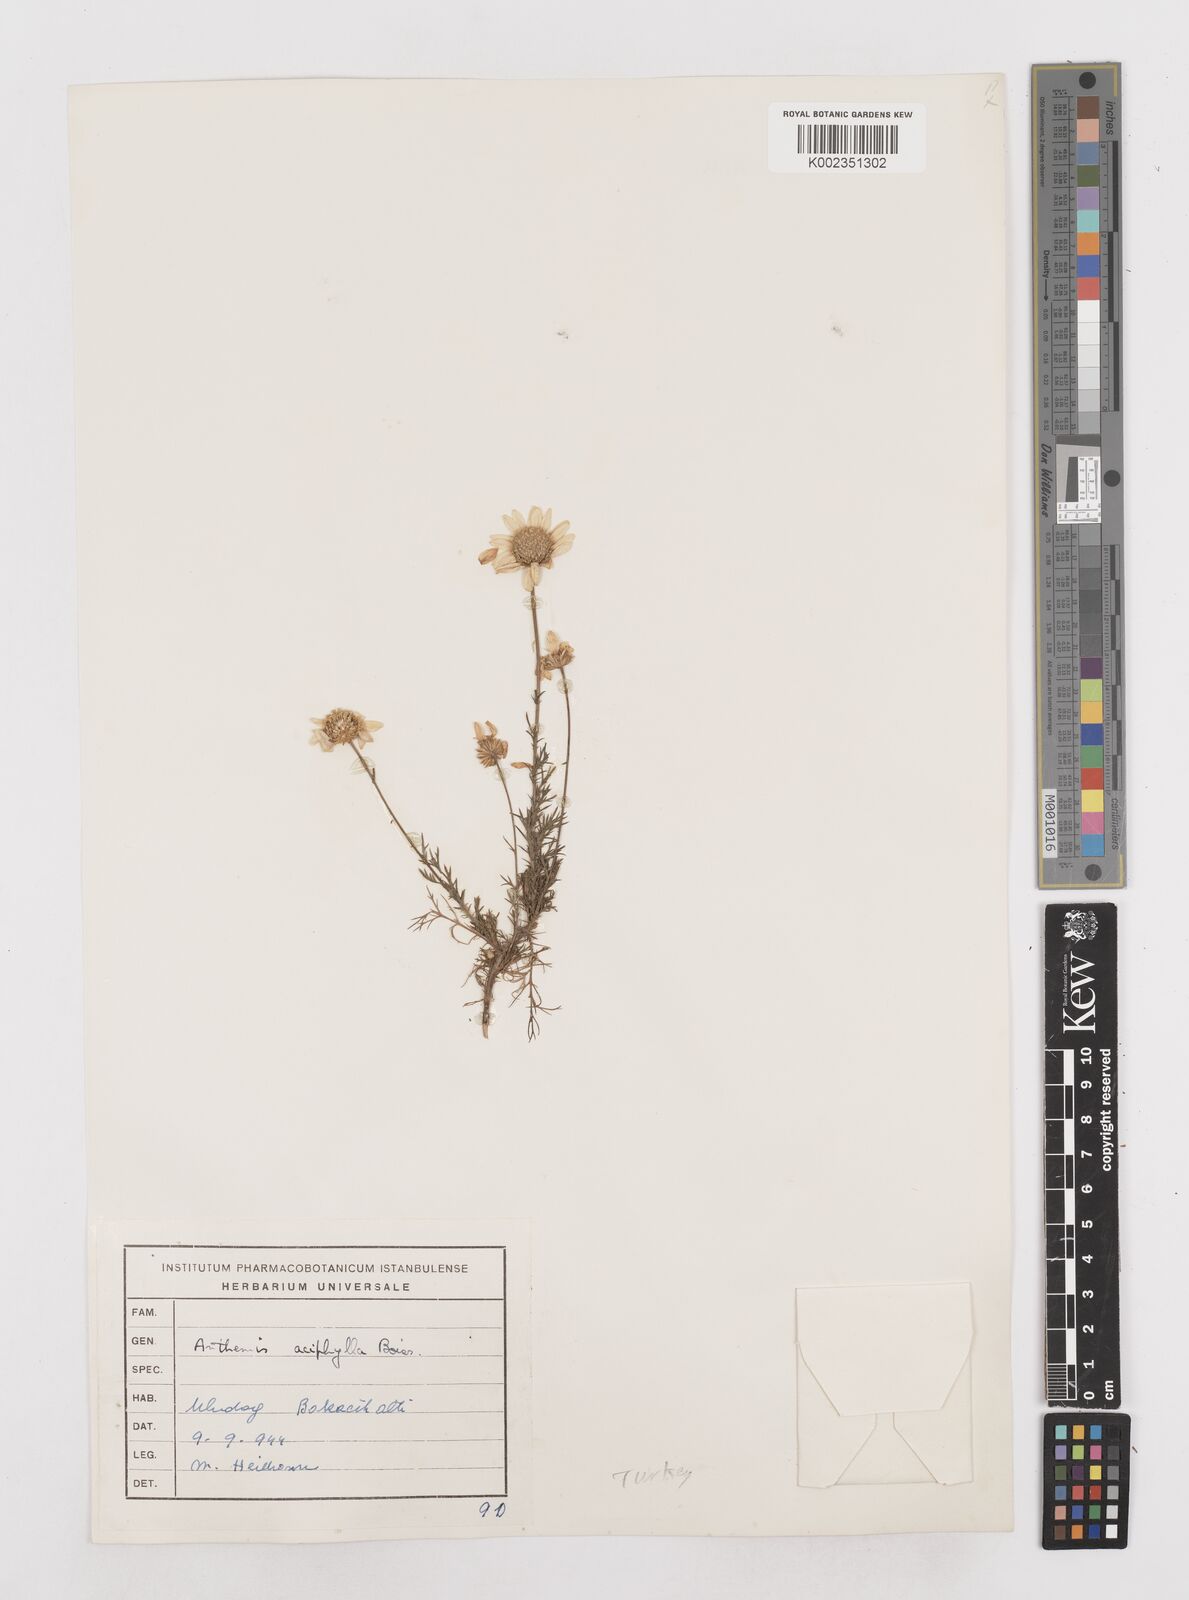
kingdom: Plantae
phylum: Tracheophyta
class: Magnoliopsida
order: Asterales
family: Asteraceae
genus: Anthemis
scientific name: Anthemis aciphylla
